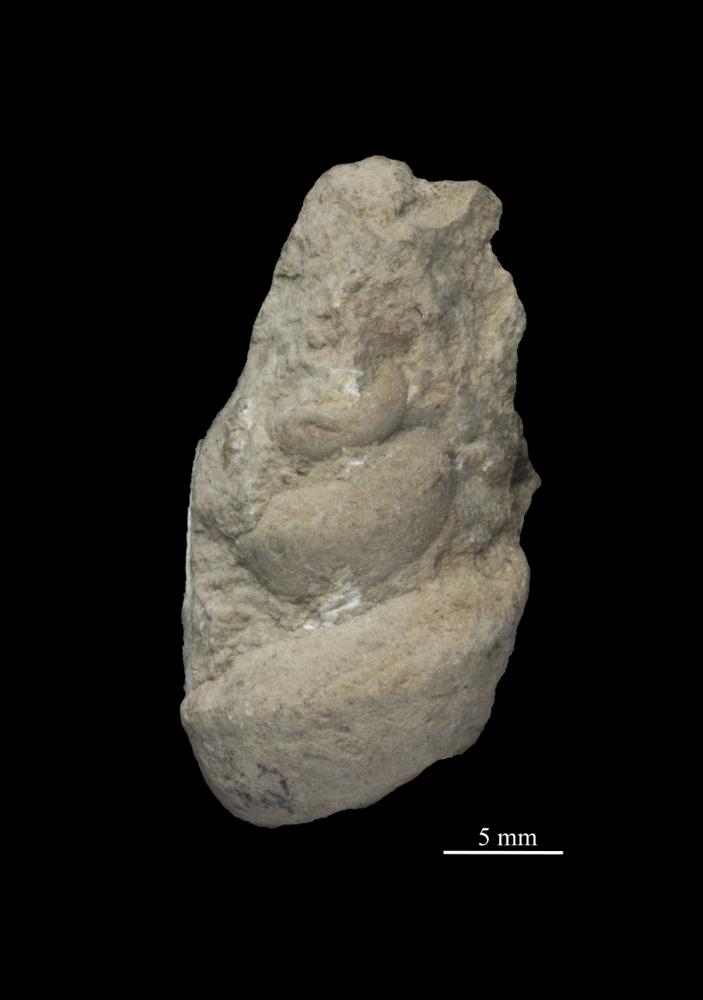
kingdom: Animalia
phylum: Mollusca
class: Gastropoda
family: Lophospiridae
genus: Loxoplocus
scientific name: Loxoplocus Turbo silurica
